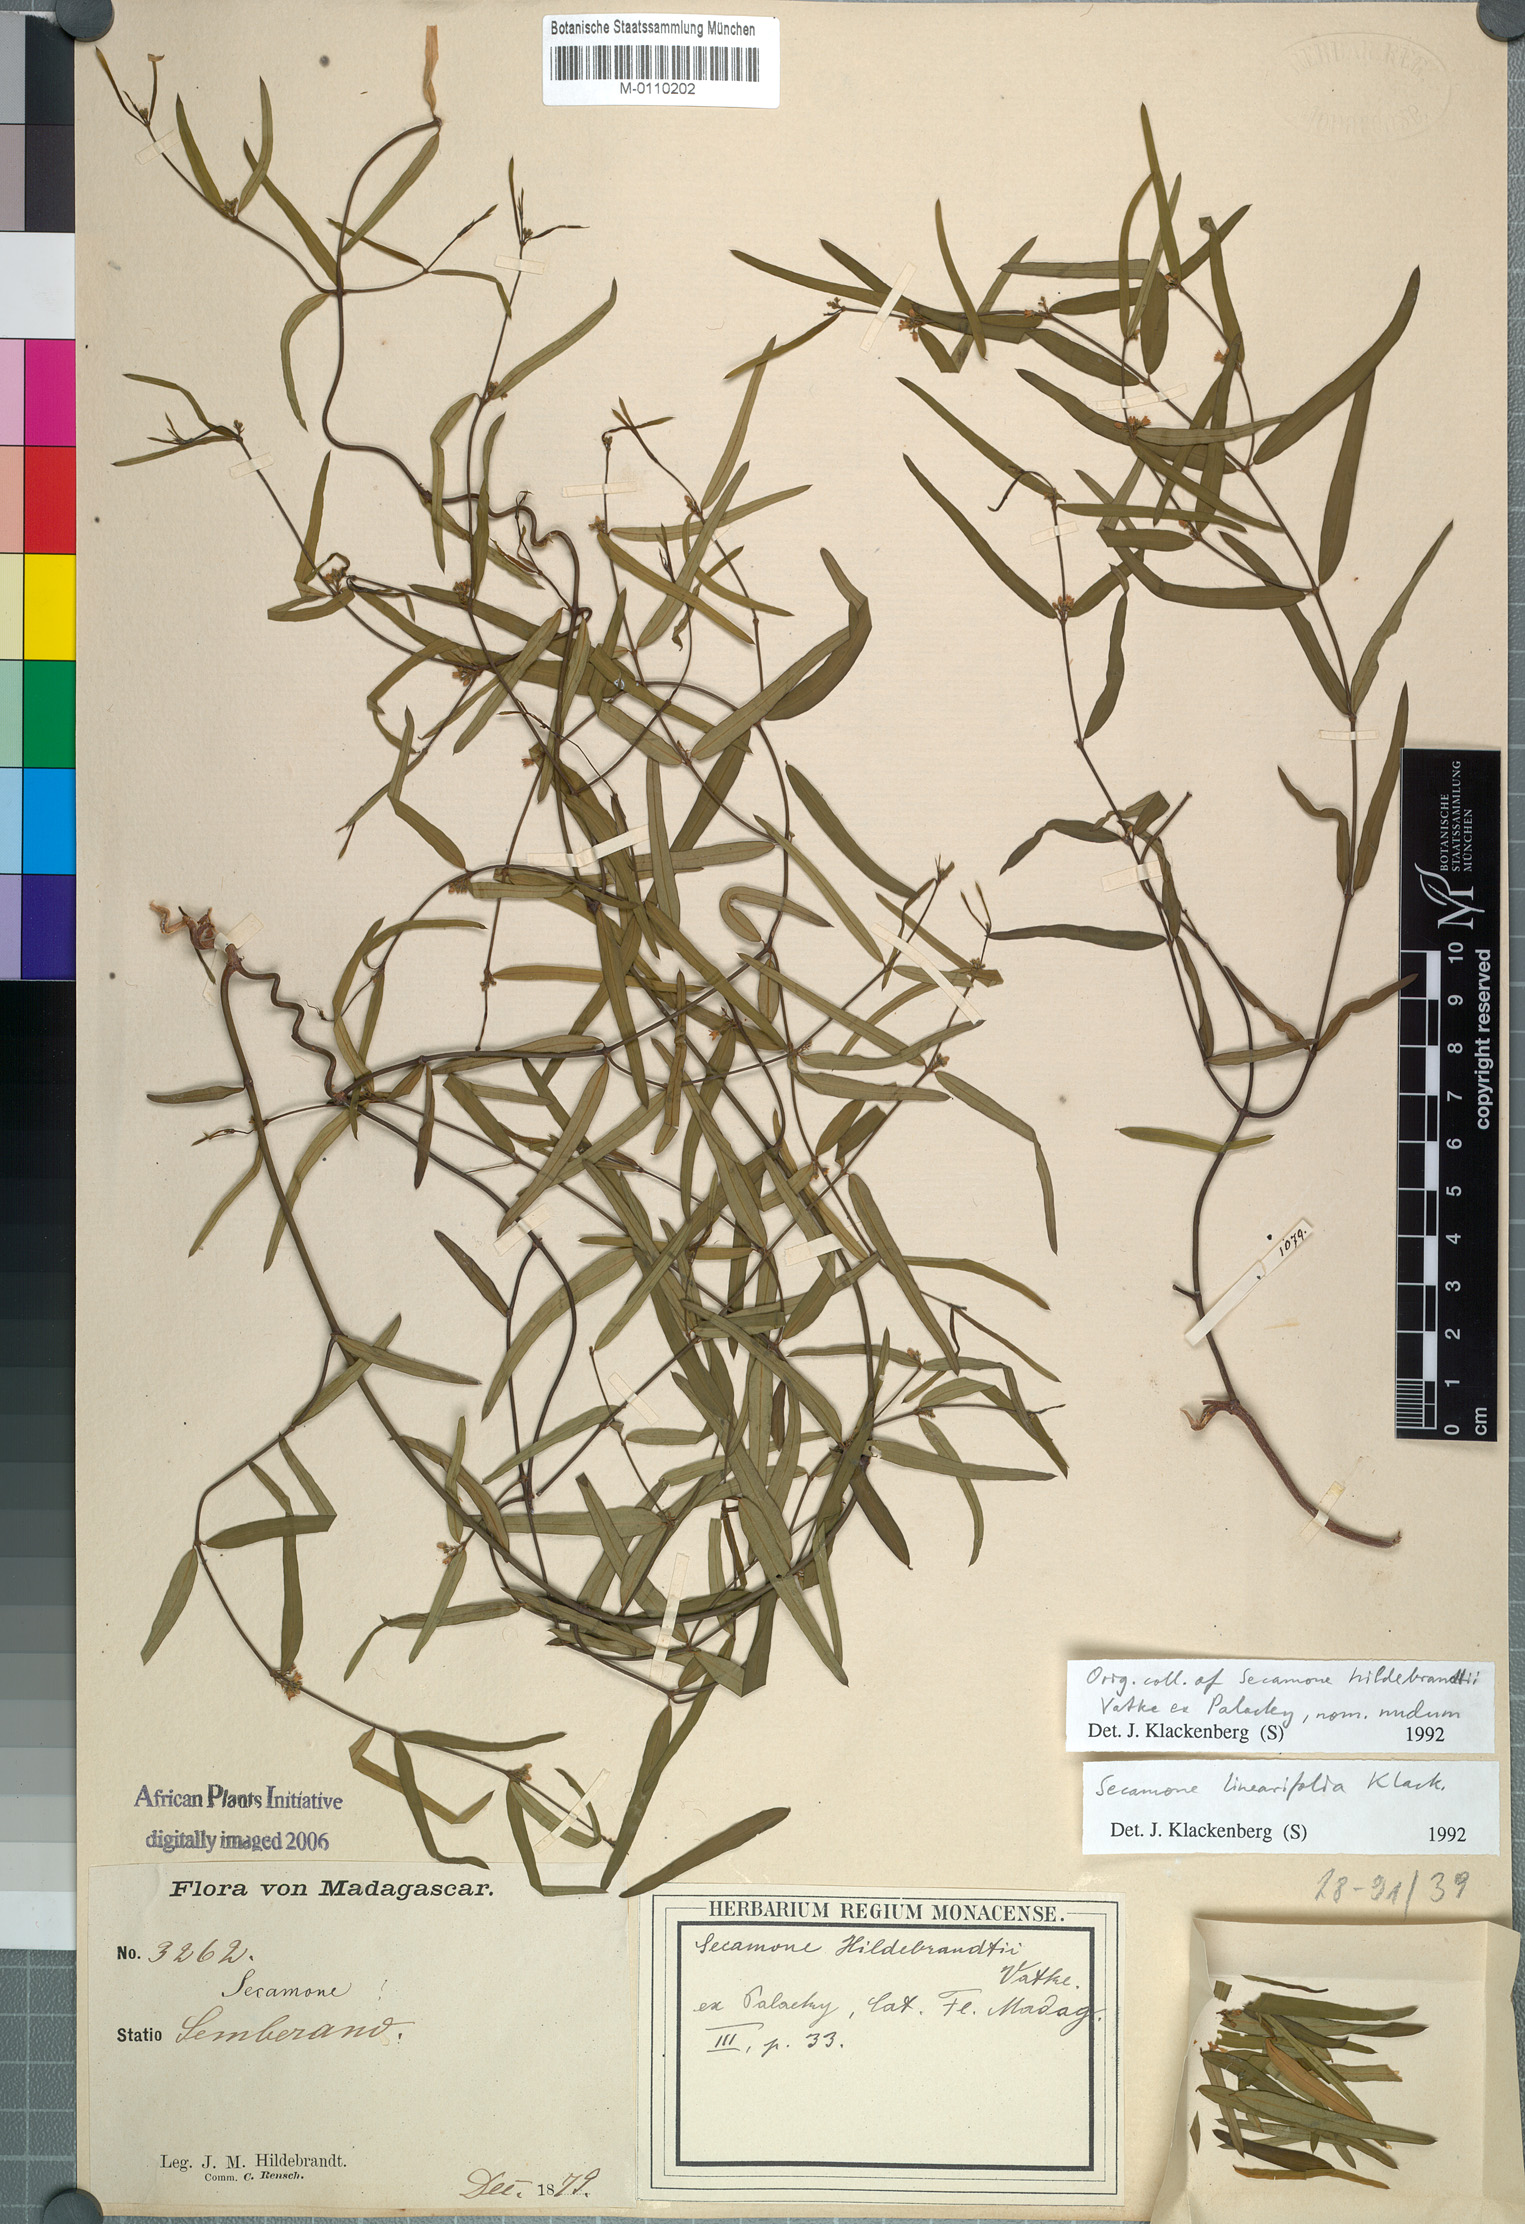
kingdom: Plantae
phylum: Tracheophyta
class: Magnoliopsida
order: Gentianales
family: Apocynaceae
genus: Secamone
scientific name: Secamone linearifolia
